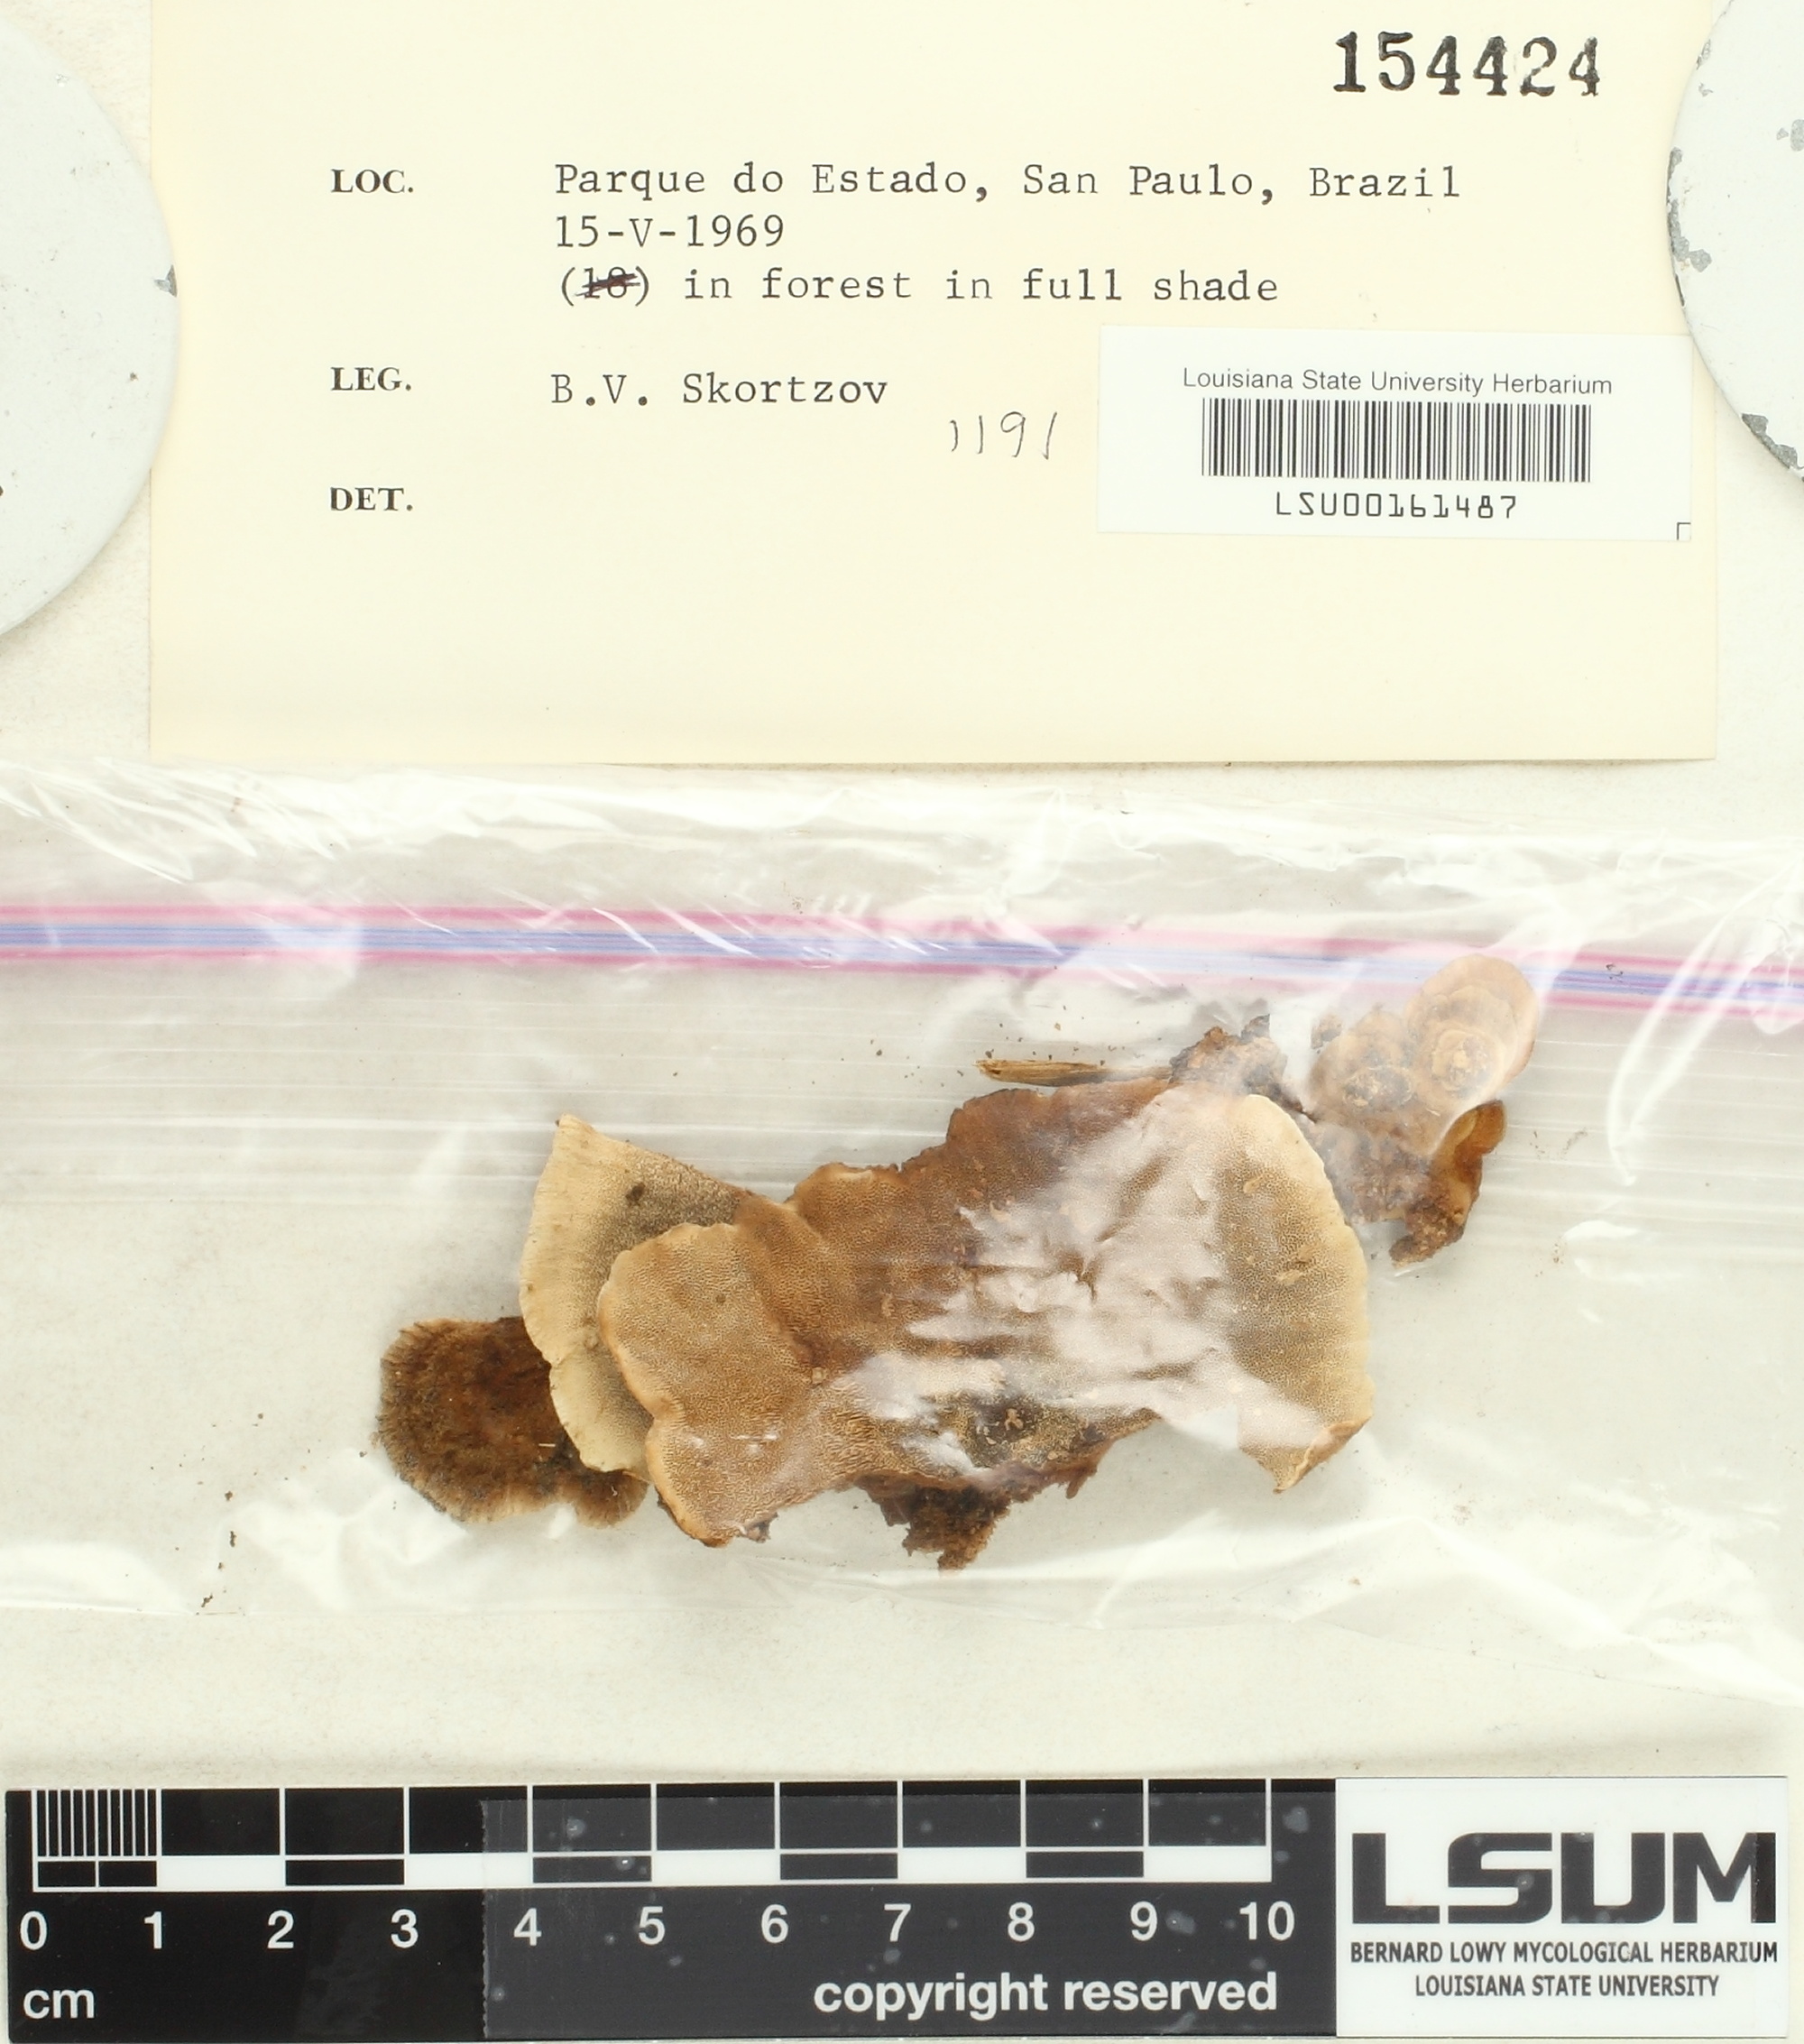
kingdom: Fungi
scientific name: Fungi
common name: Fungi
